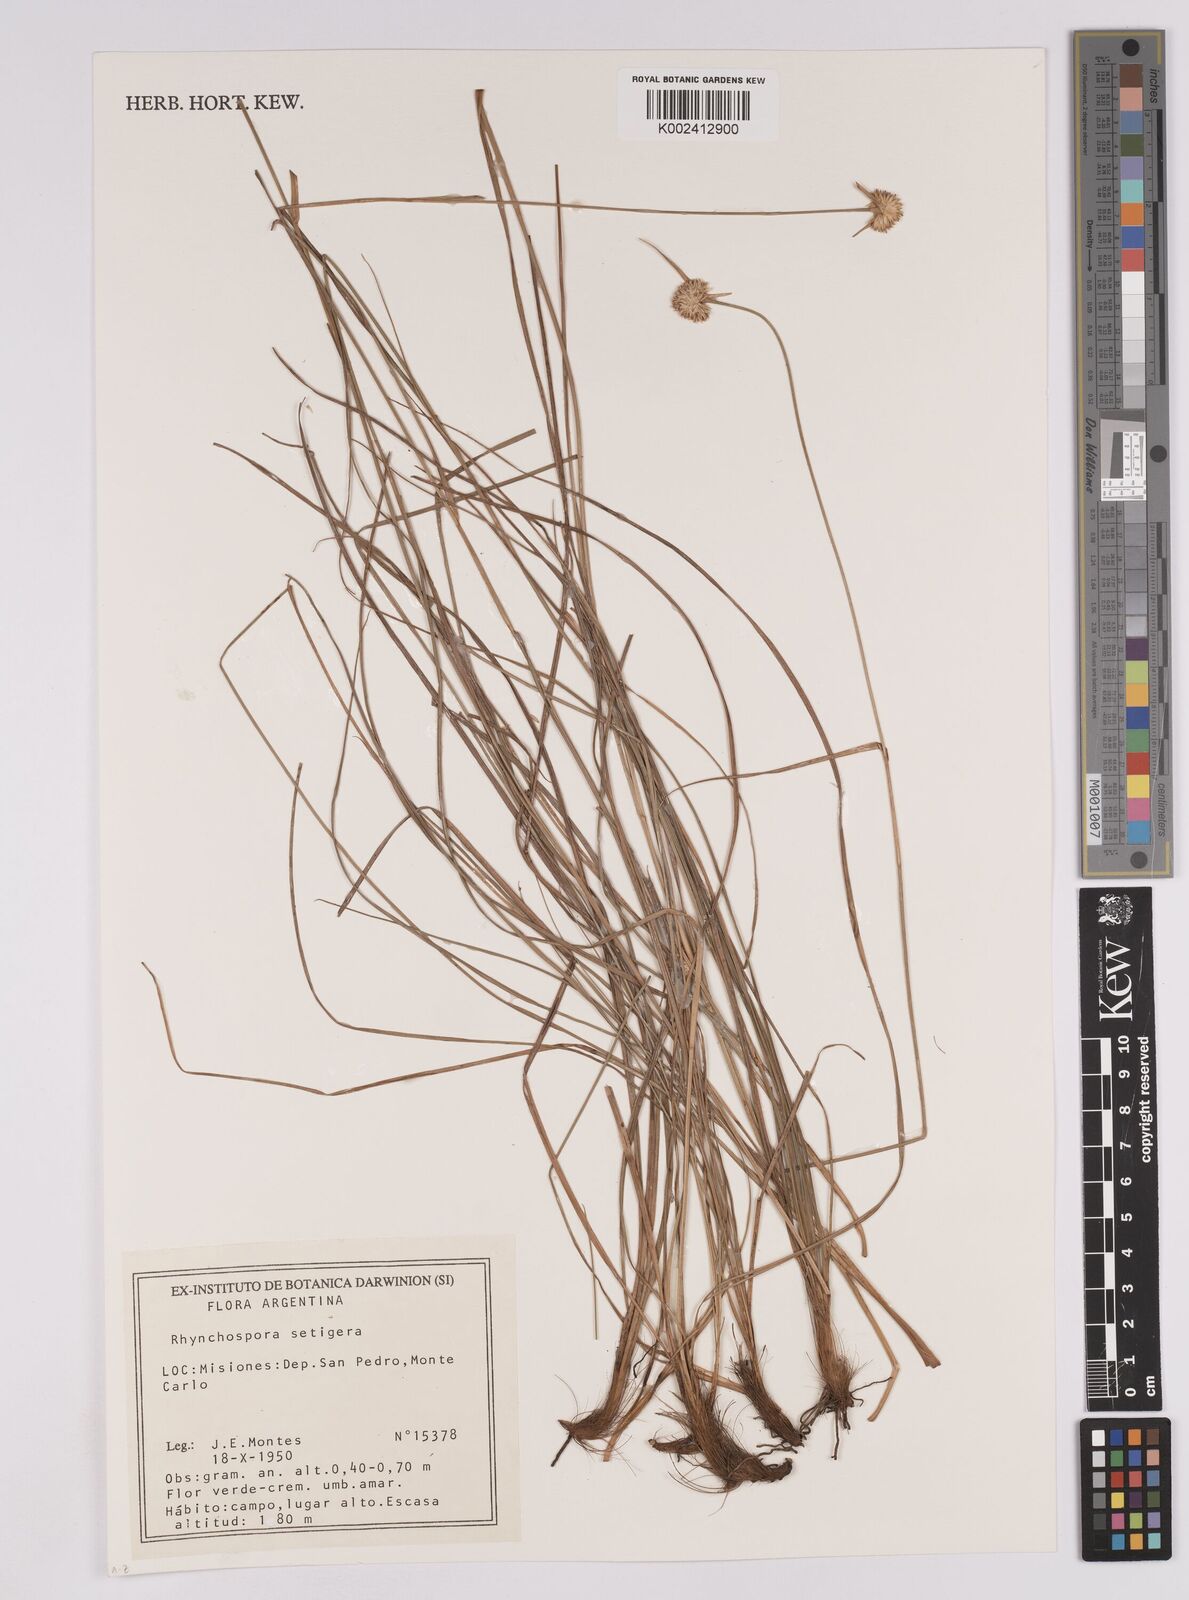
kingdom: Plantae
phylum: Tracheophyta
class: Liliopsida
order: Poales
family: Cyperaceae
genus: Rhynchospora
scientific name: Rhynchospora setigera
